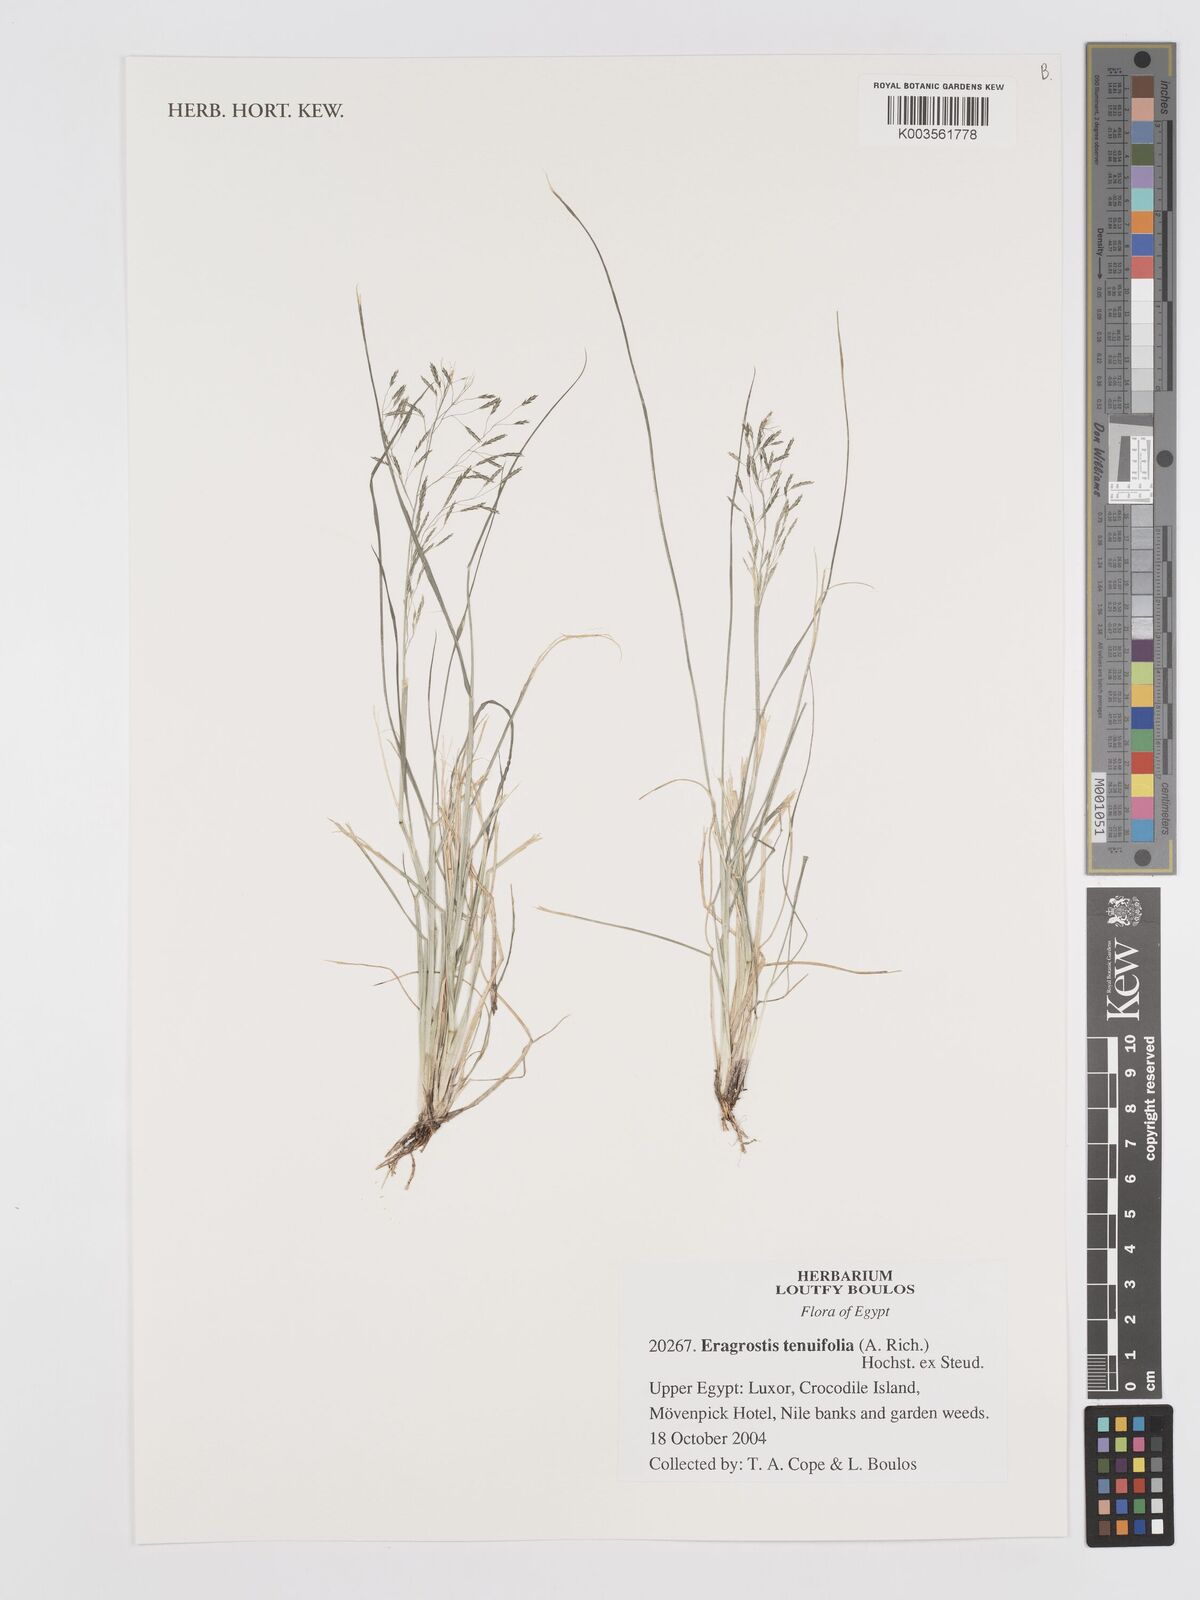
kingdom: Plantae
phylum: Tracheophyta
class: Liliopsida
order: Poales
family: Poaceae
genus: Eragrostis
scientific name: Eragrostis tenuifolia
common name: Elastic grass
